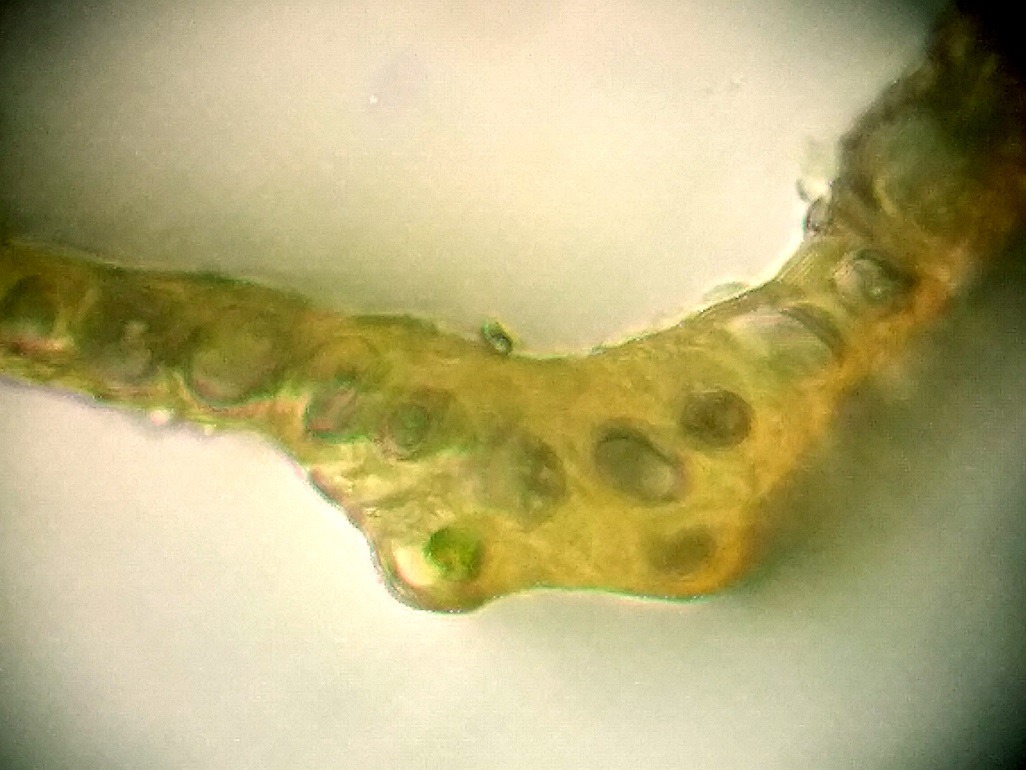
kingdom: Plantae
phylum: Bryophyta
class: Bryopsida
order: Dicranales
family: Dicranaceae
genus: Dicranum
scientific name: Dicranum bonjeanii
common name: Kær-kløvtand
